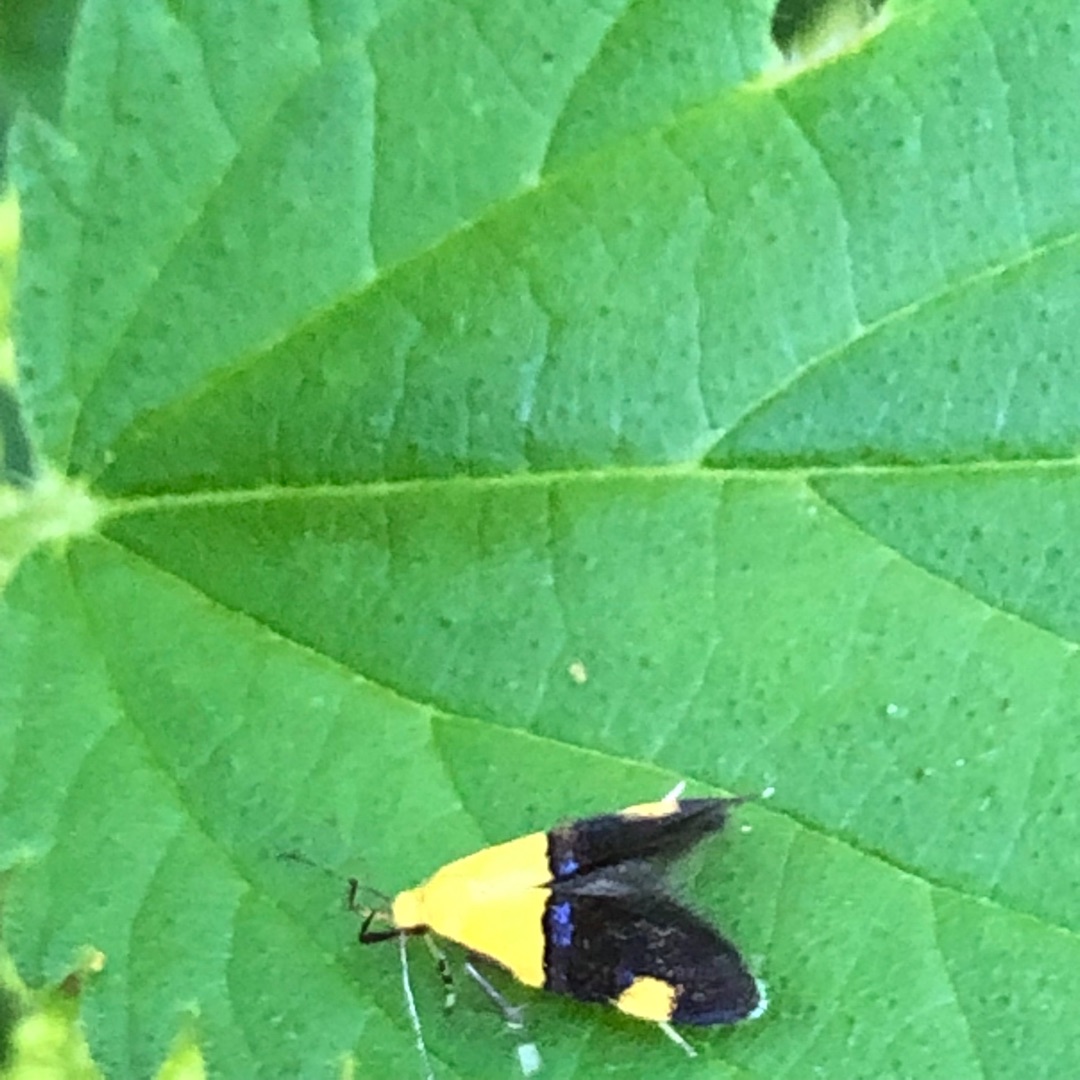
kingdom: Animalia
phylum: Arthropoda
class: Insecta
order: Lepidoptera
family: Oecophoridae
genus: Oecophora
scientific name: Oecophora bractella
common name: Tofarvet prydvinge
